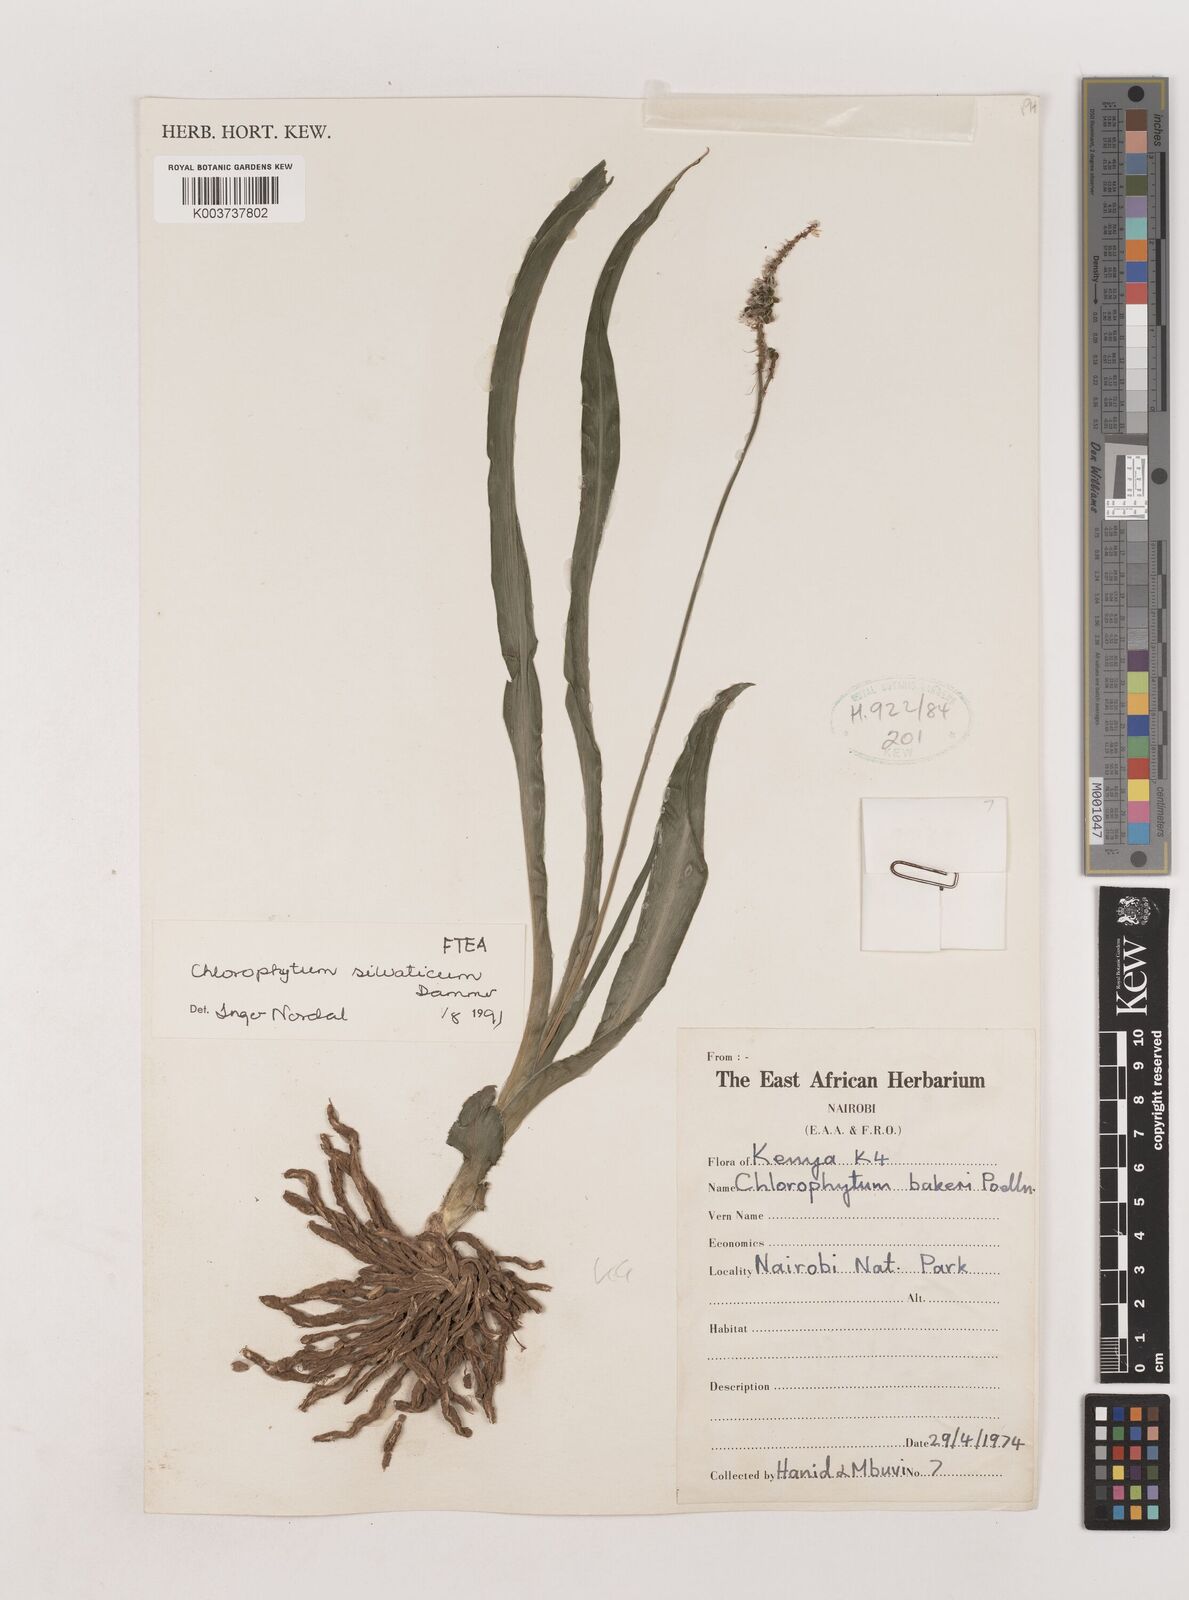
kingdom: Plantae
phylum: Tracheophyta
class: Liliopsida
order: Asparagales
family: Asparagaceae
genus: Chlorophytum
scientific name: Chlorophytum africanum
